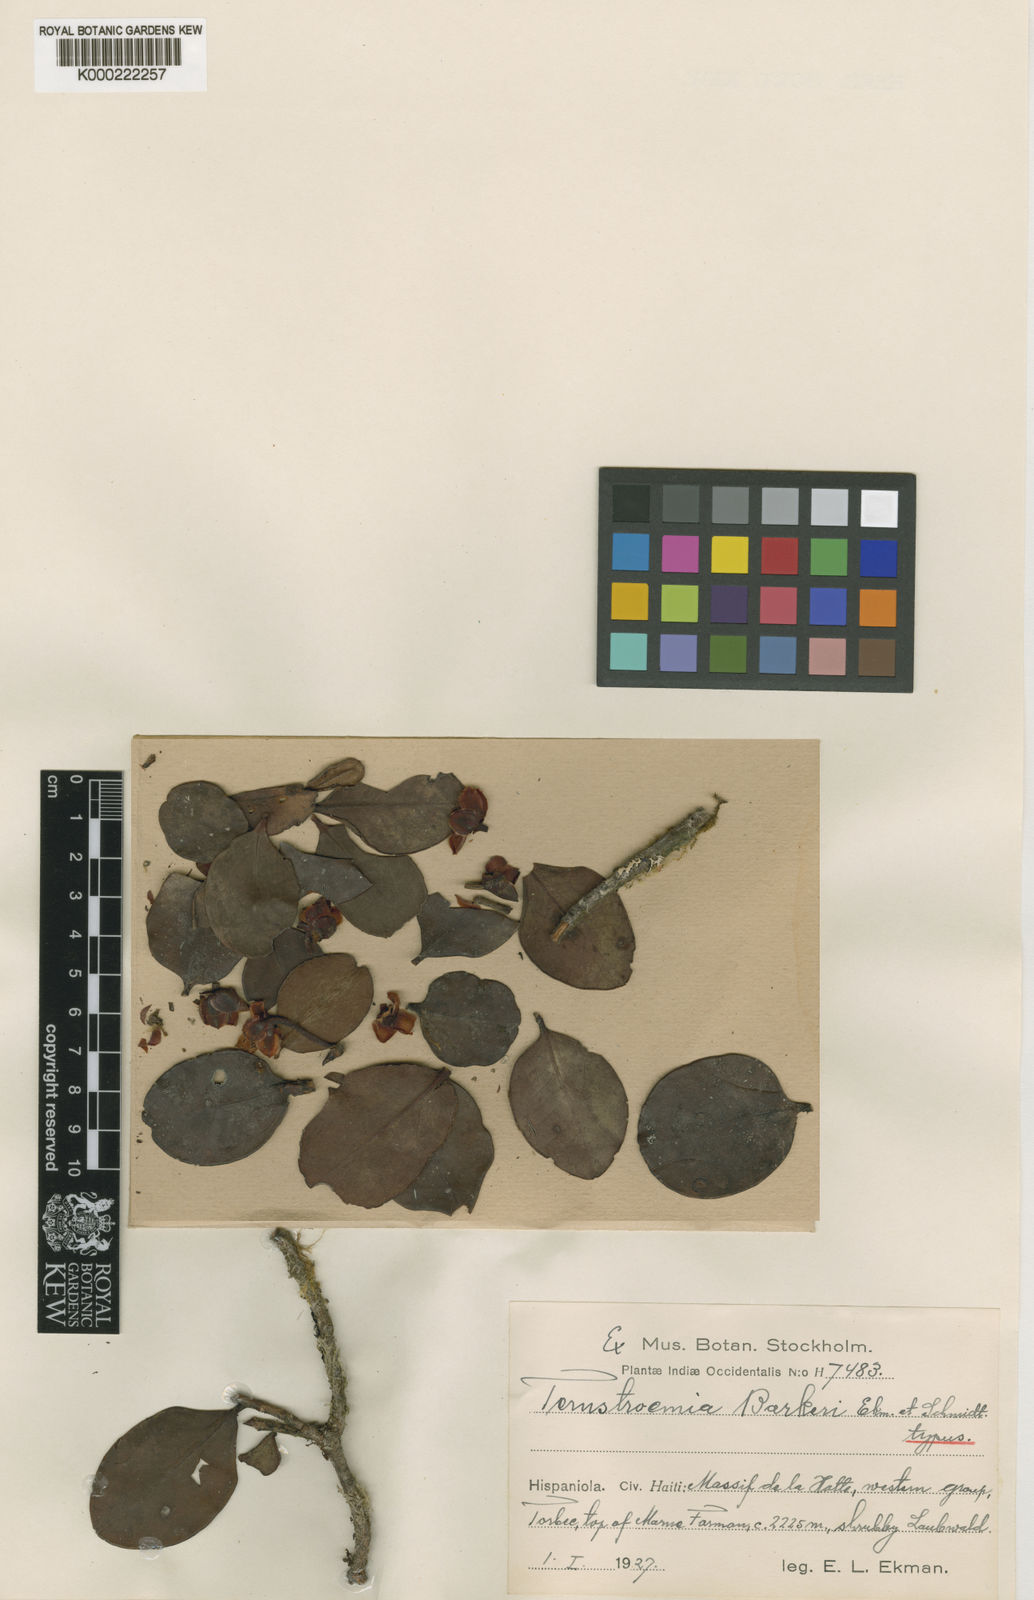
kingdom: Plantae
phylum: Tracheophyta
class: Magnoliopsida
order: Ericales
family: Pentaphylacaceae
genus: Ternstroemia
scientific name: Ternstroemia barkeri
